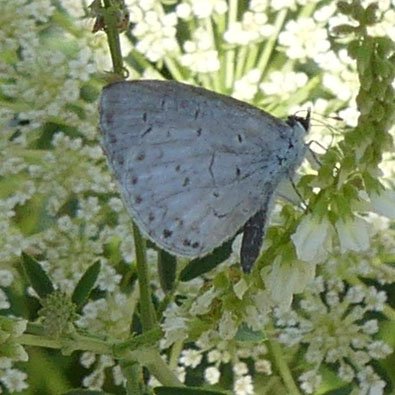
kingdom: Animalia
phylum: Arthropoda
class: Insecta
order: Lepidoptera
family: Lycaenidae
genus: Celastrina
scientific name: Celastrina
